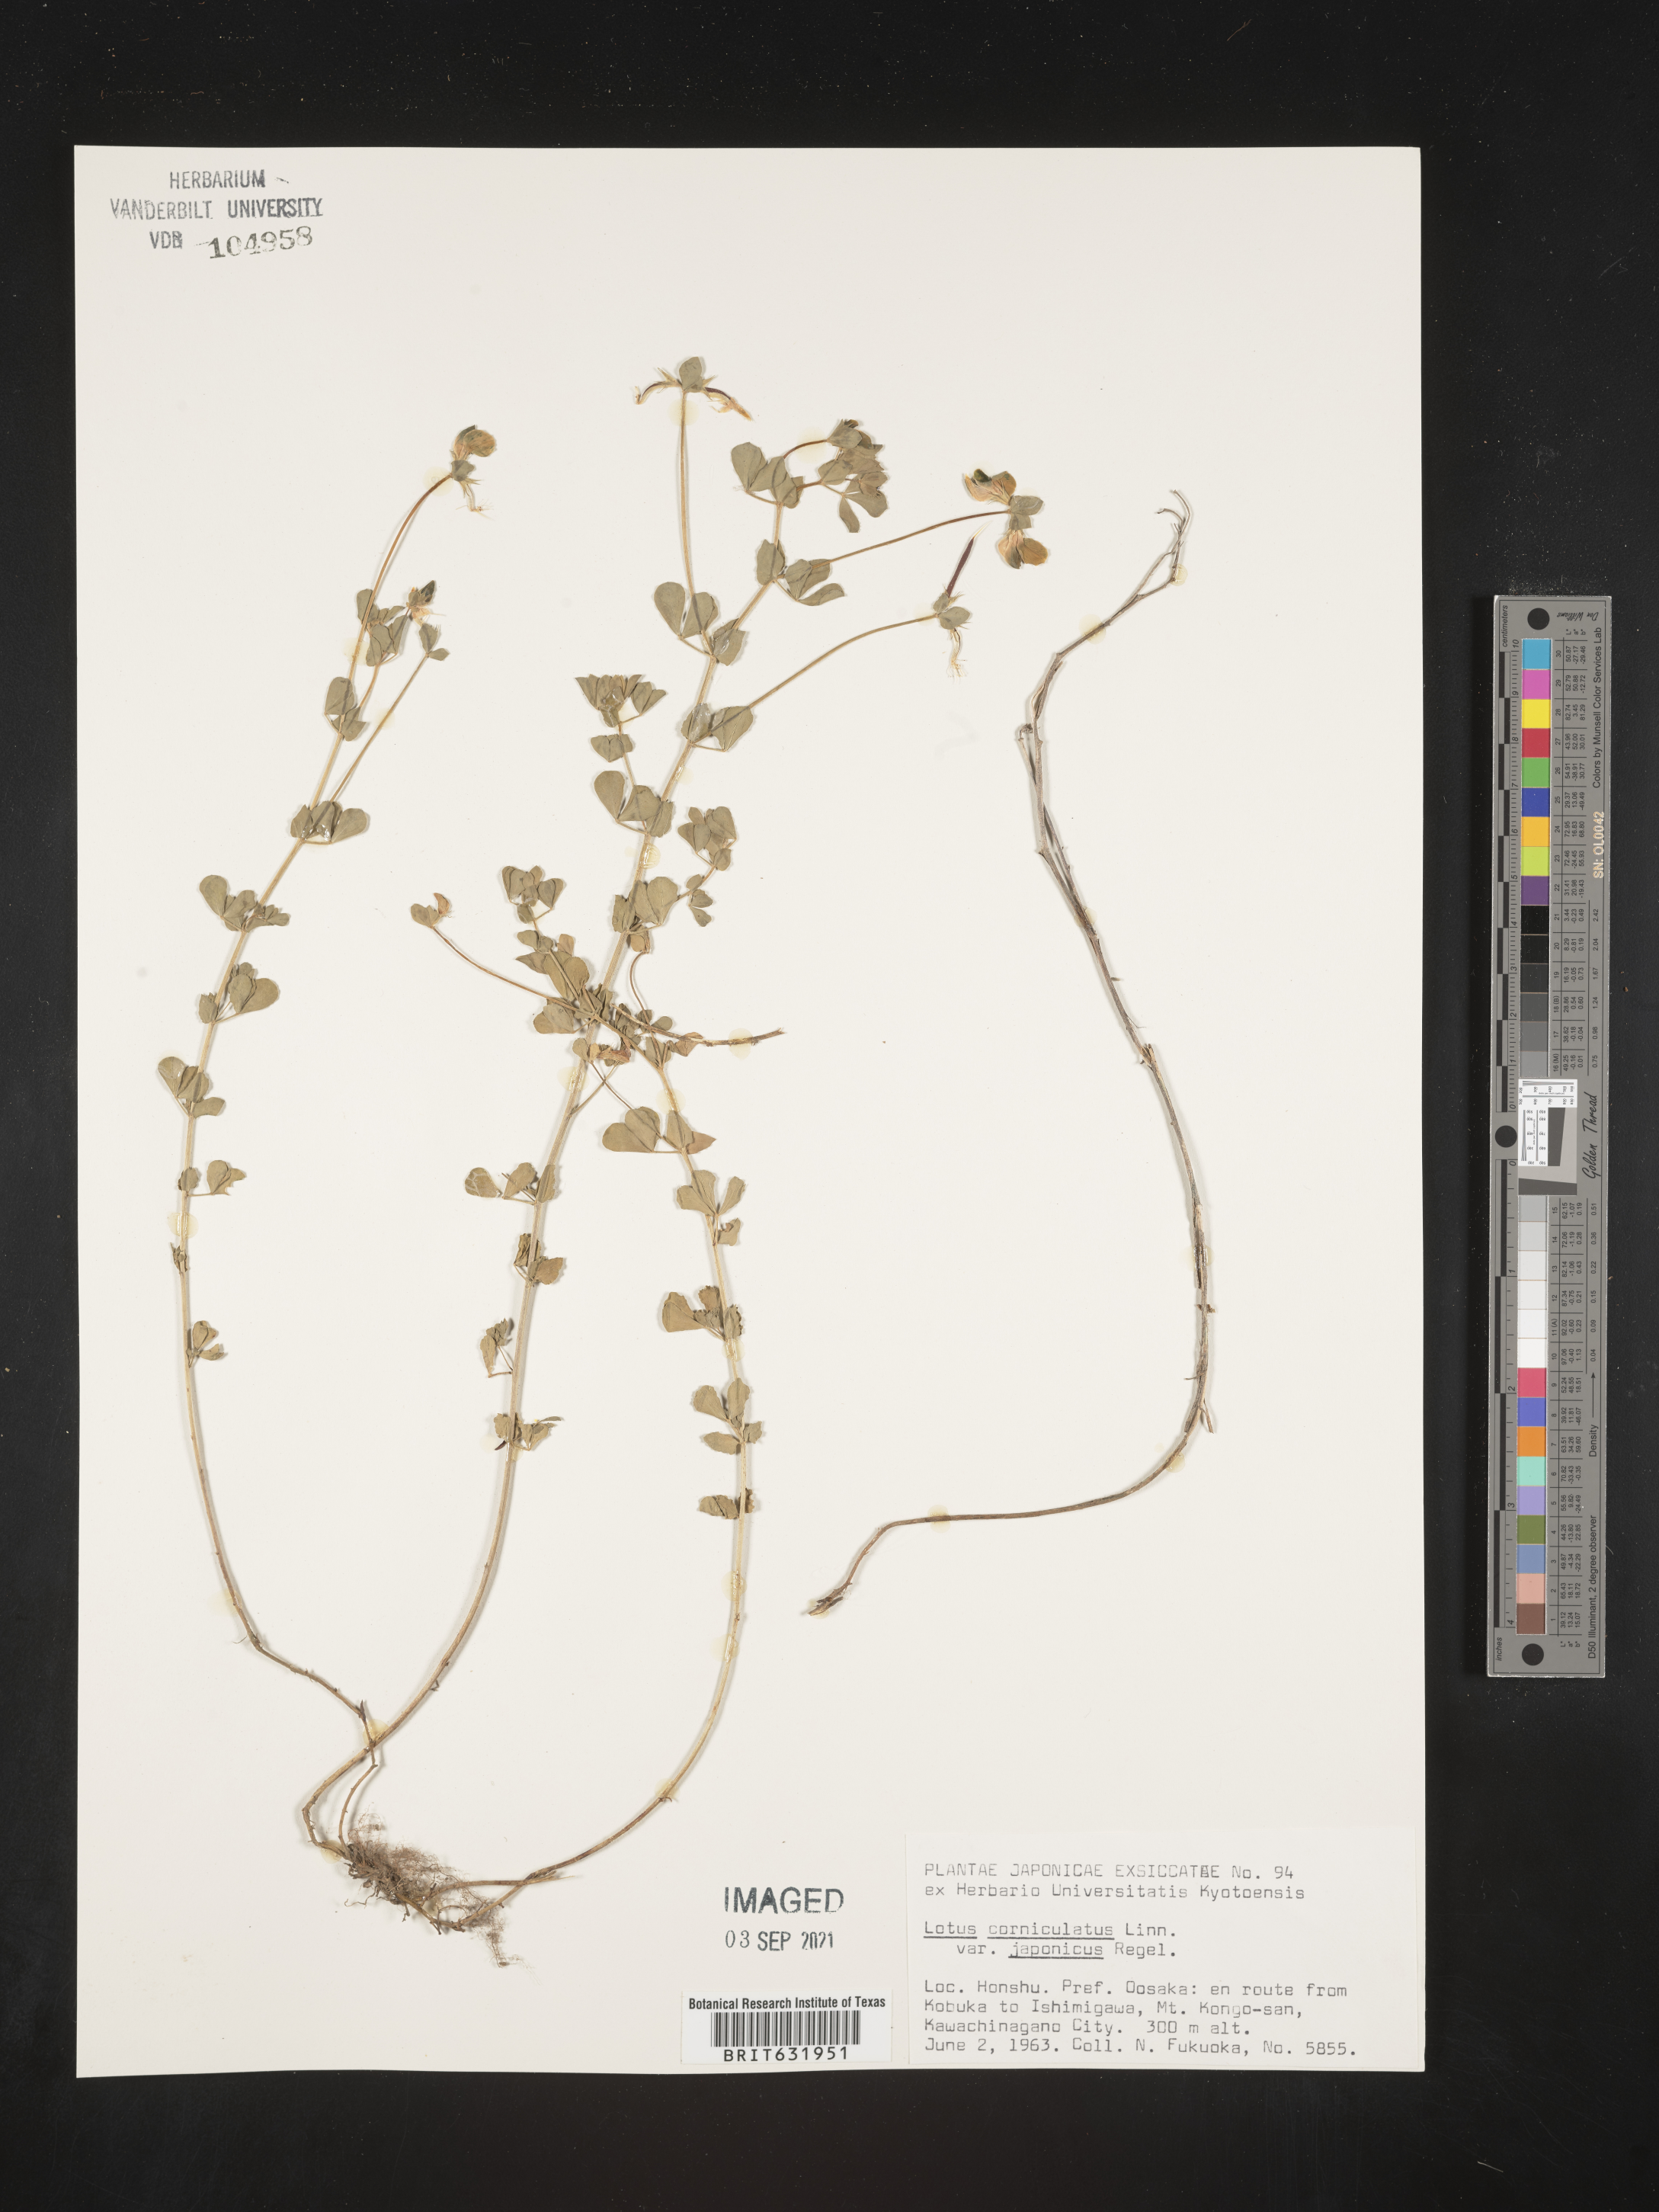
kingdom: Plantae
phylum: Tracheophyta
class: Magnoliopsida
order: Fabales
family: Fabaceae
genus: Lotus
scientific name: Lotus
